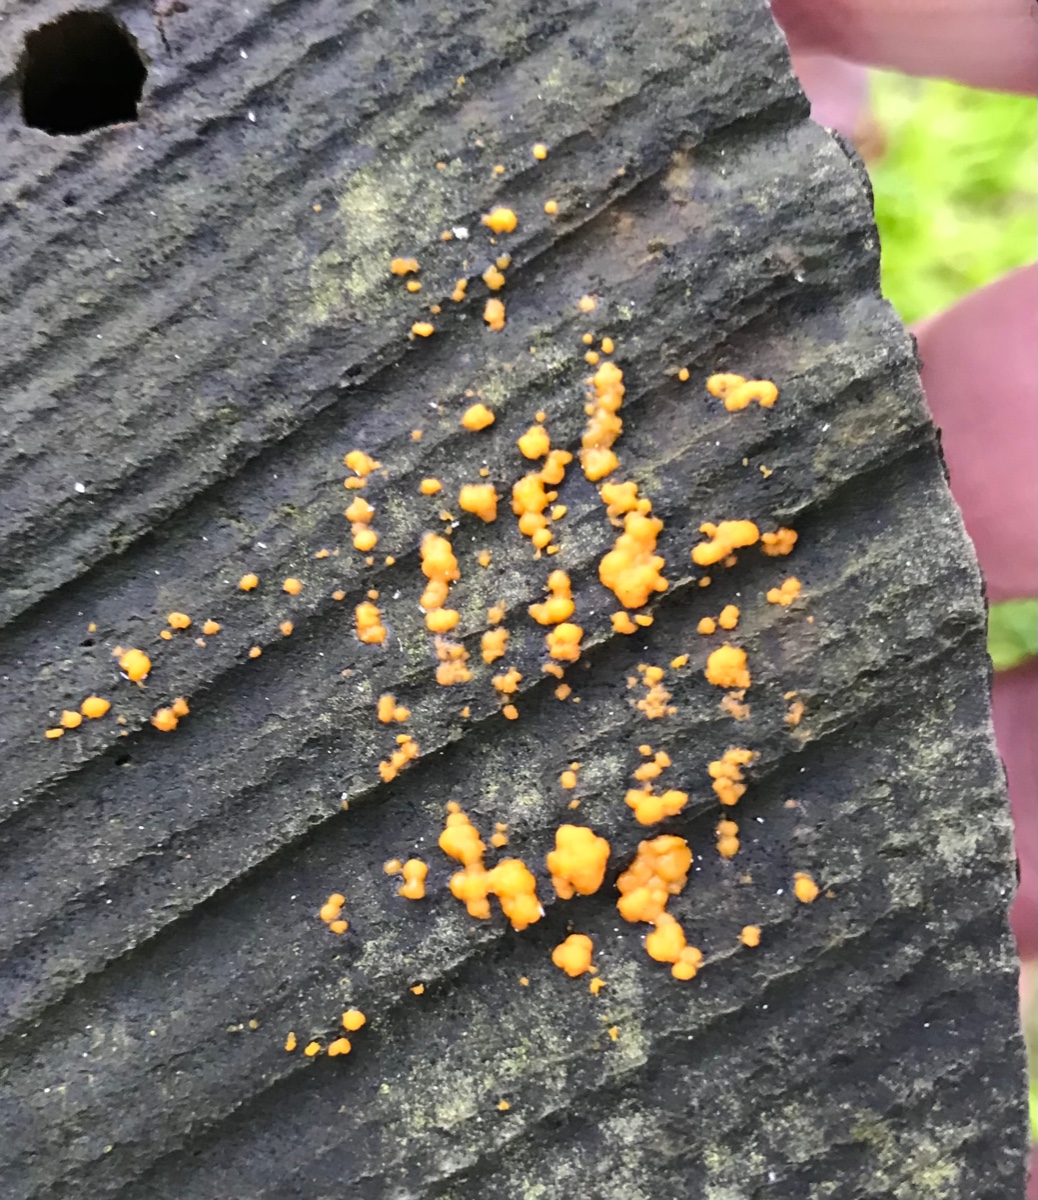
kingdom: Fungi
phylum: Basidiomycota
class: Dacrymycetes
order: Dacrymycetales
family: Dacrymycetaceae
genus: Dacrymyces
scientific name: Dacrymyces stillatus
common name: almindelig tåresvamp
